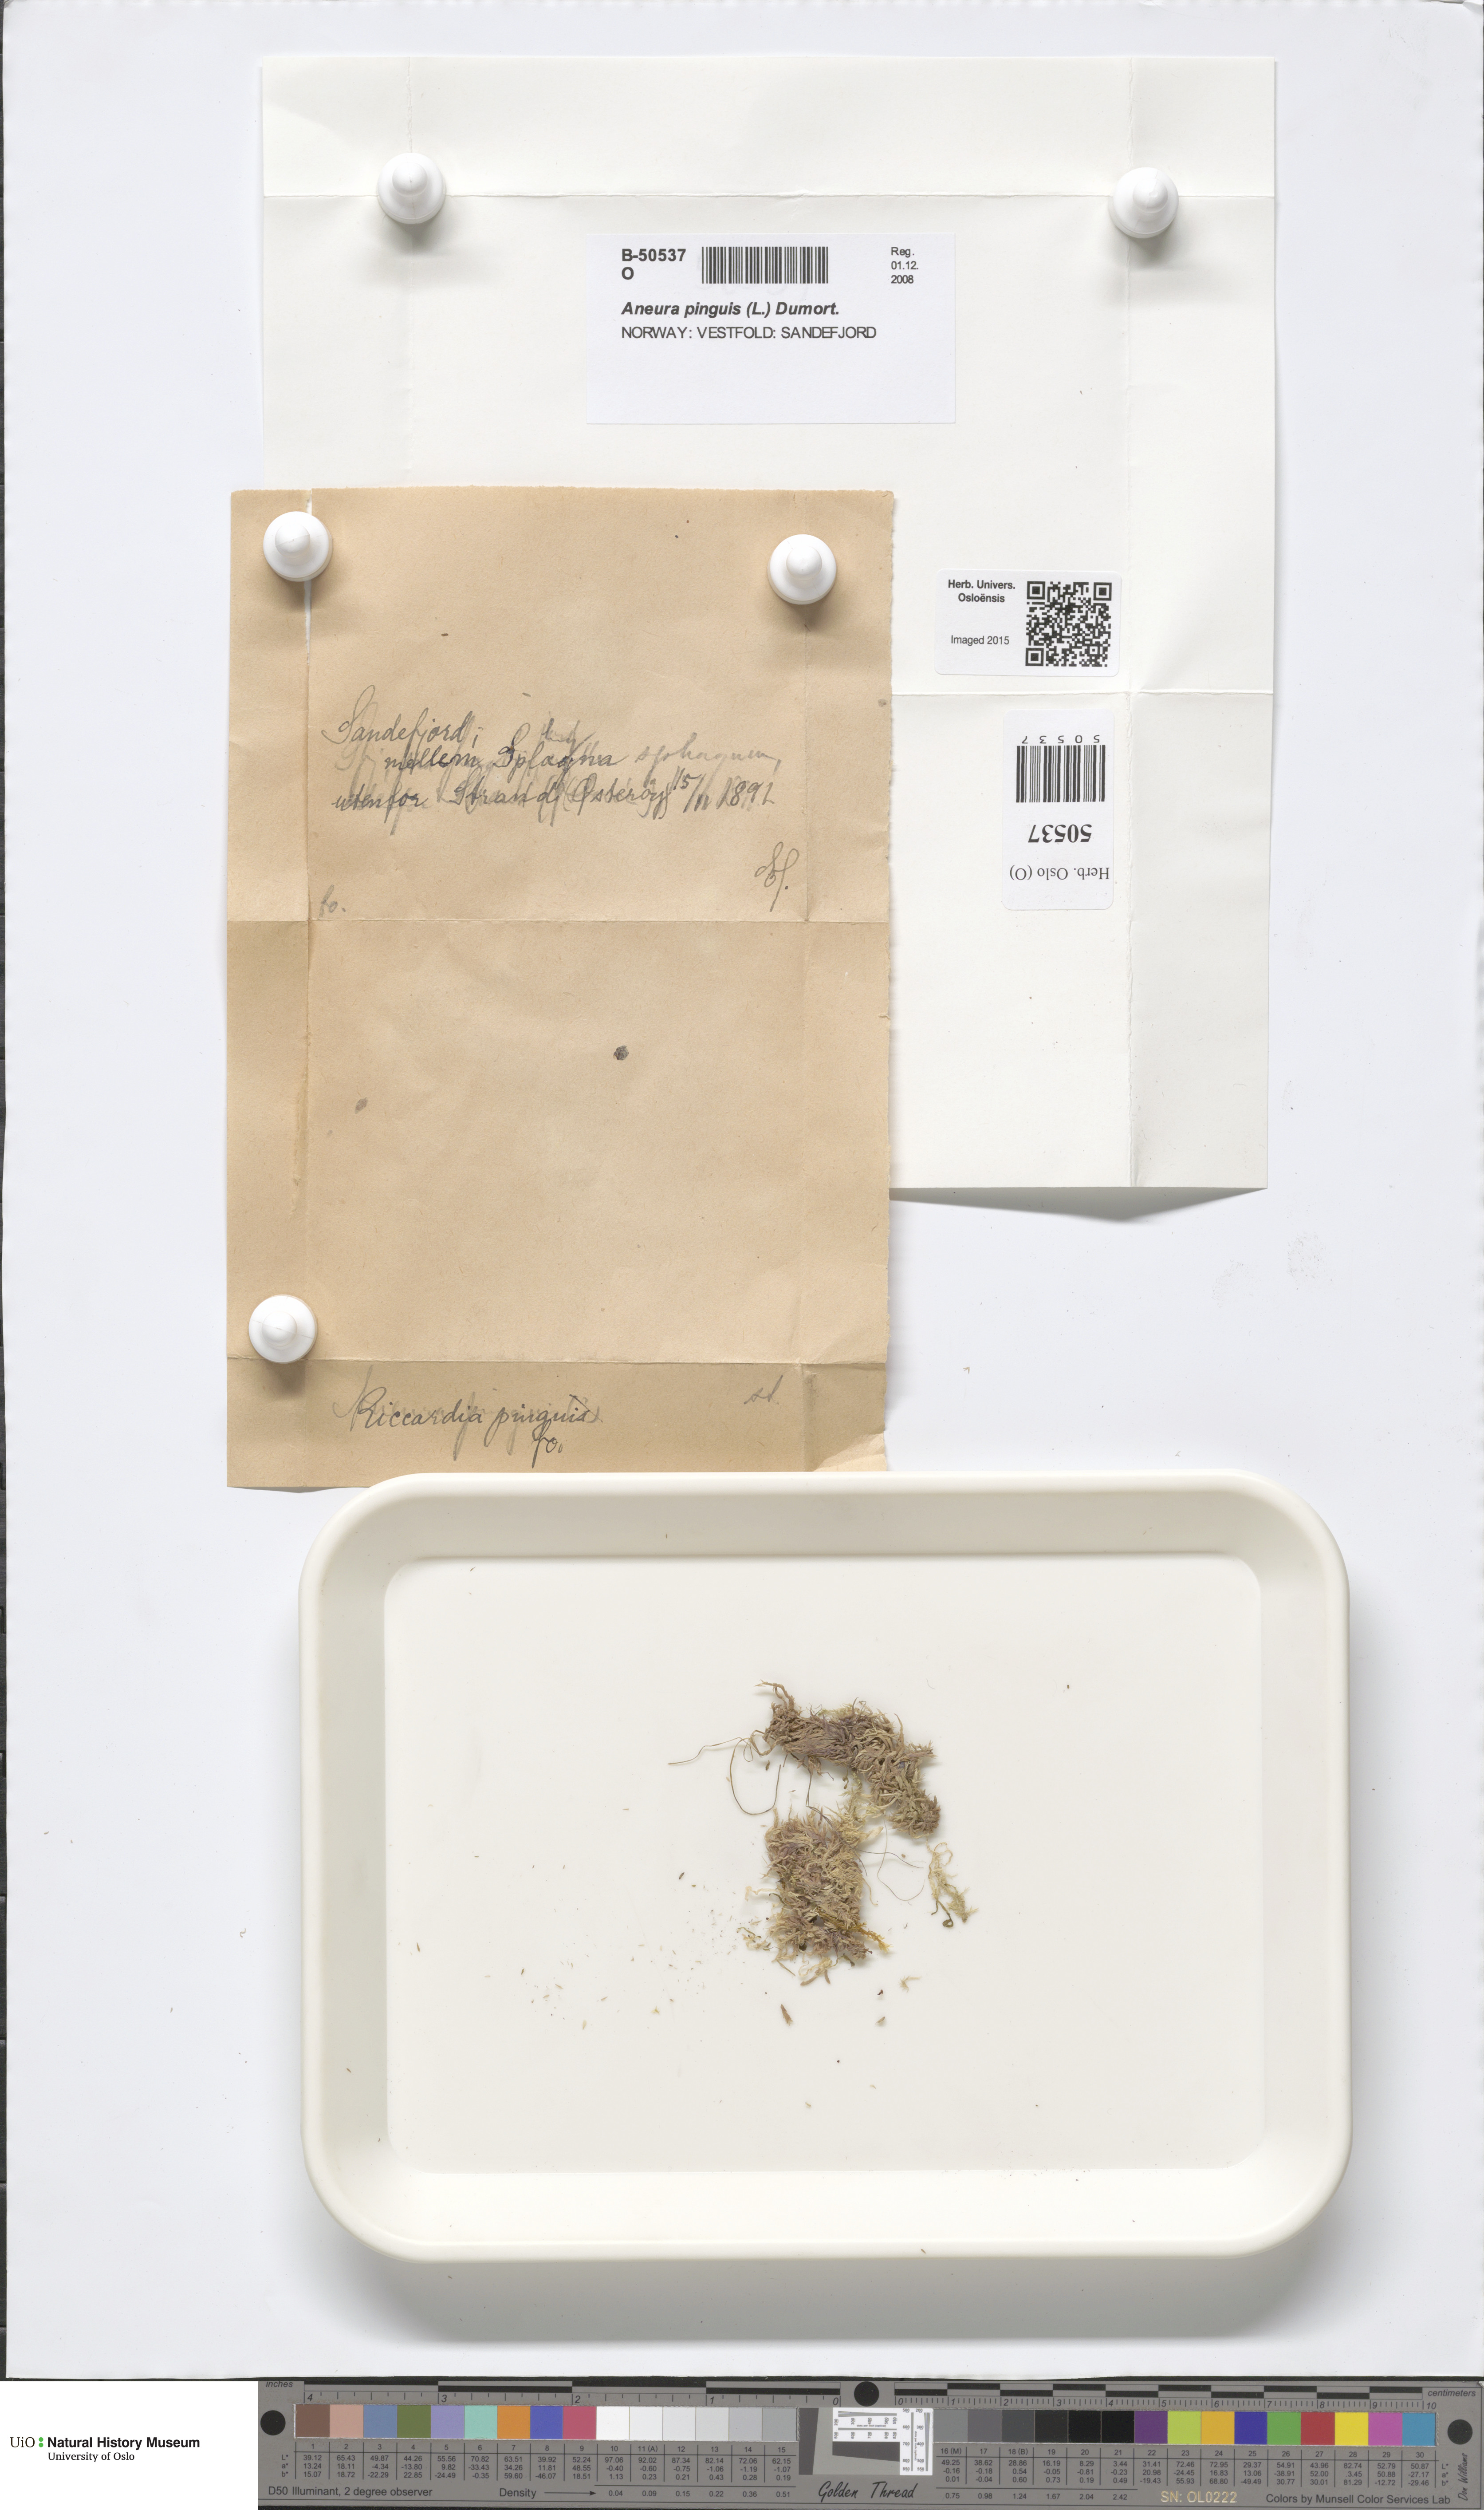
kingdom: Plantae
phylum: Marchantiophyta
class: Jungermanniopsida
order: Metzgeriales
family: Aneuraceae
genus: Aneura
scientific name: Aneura pinguis
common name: Common greasewort
